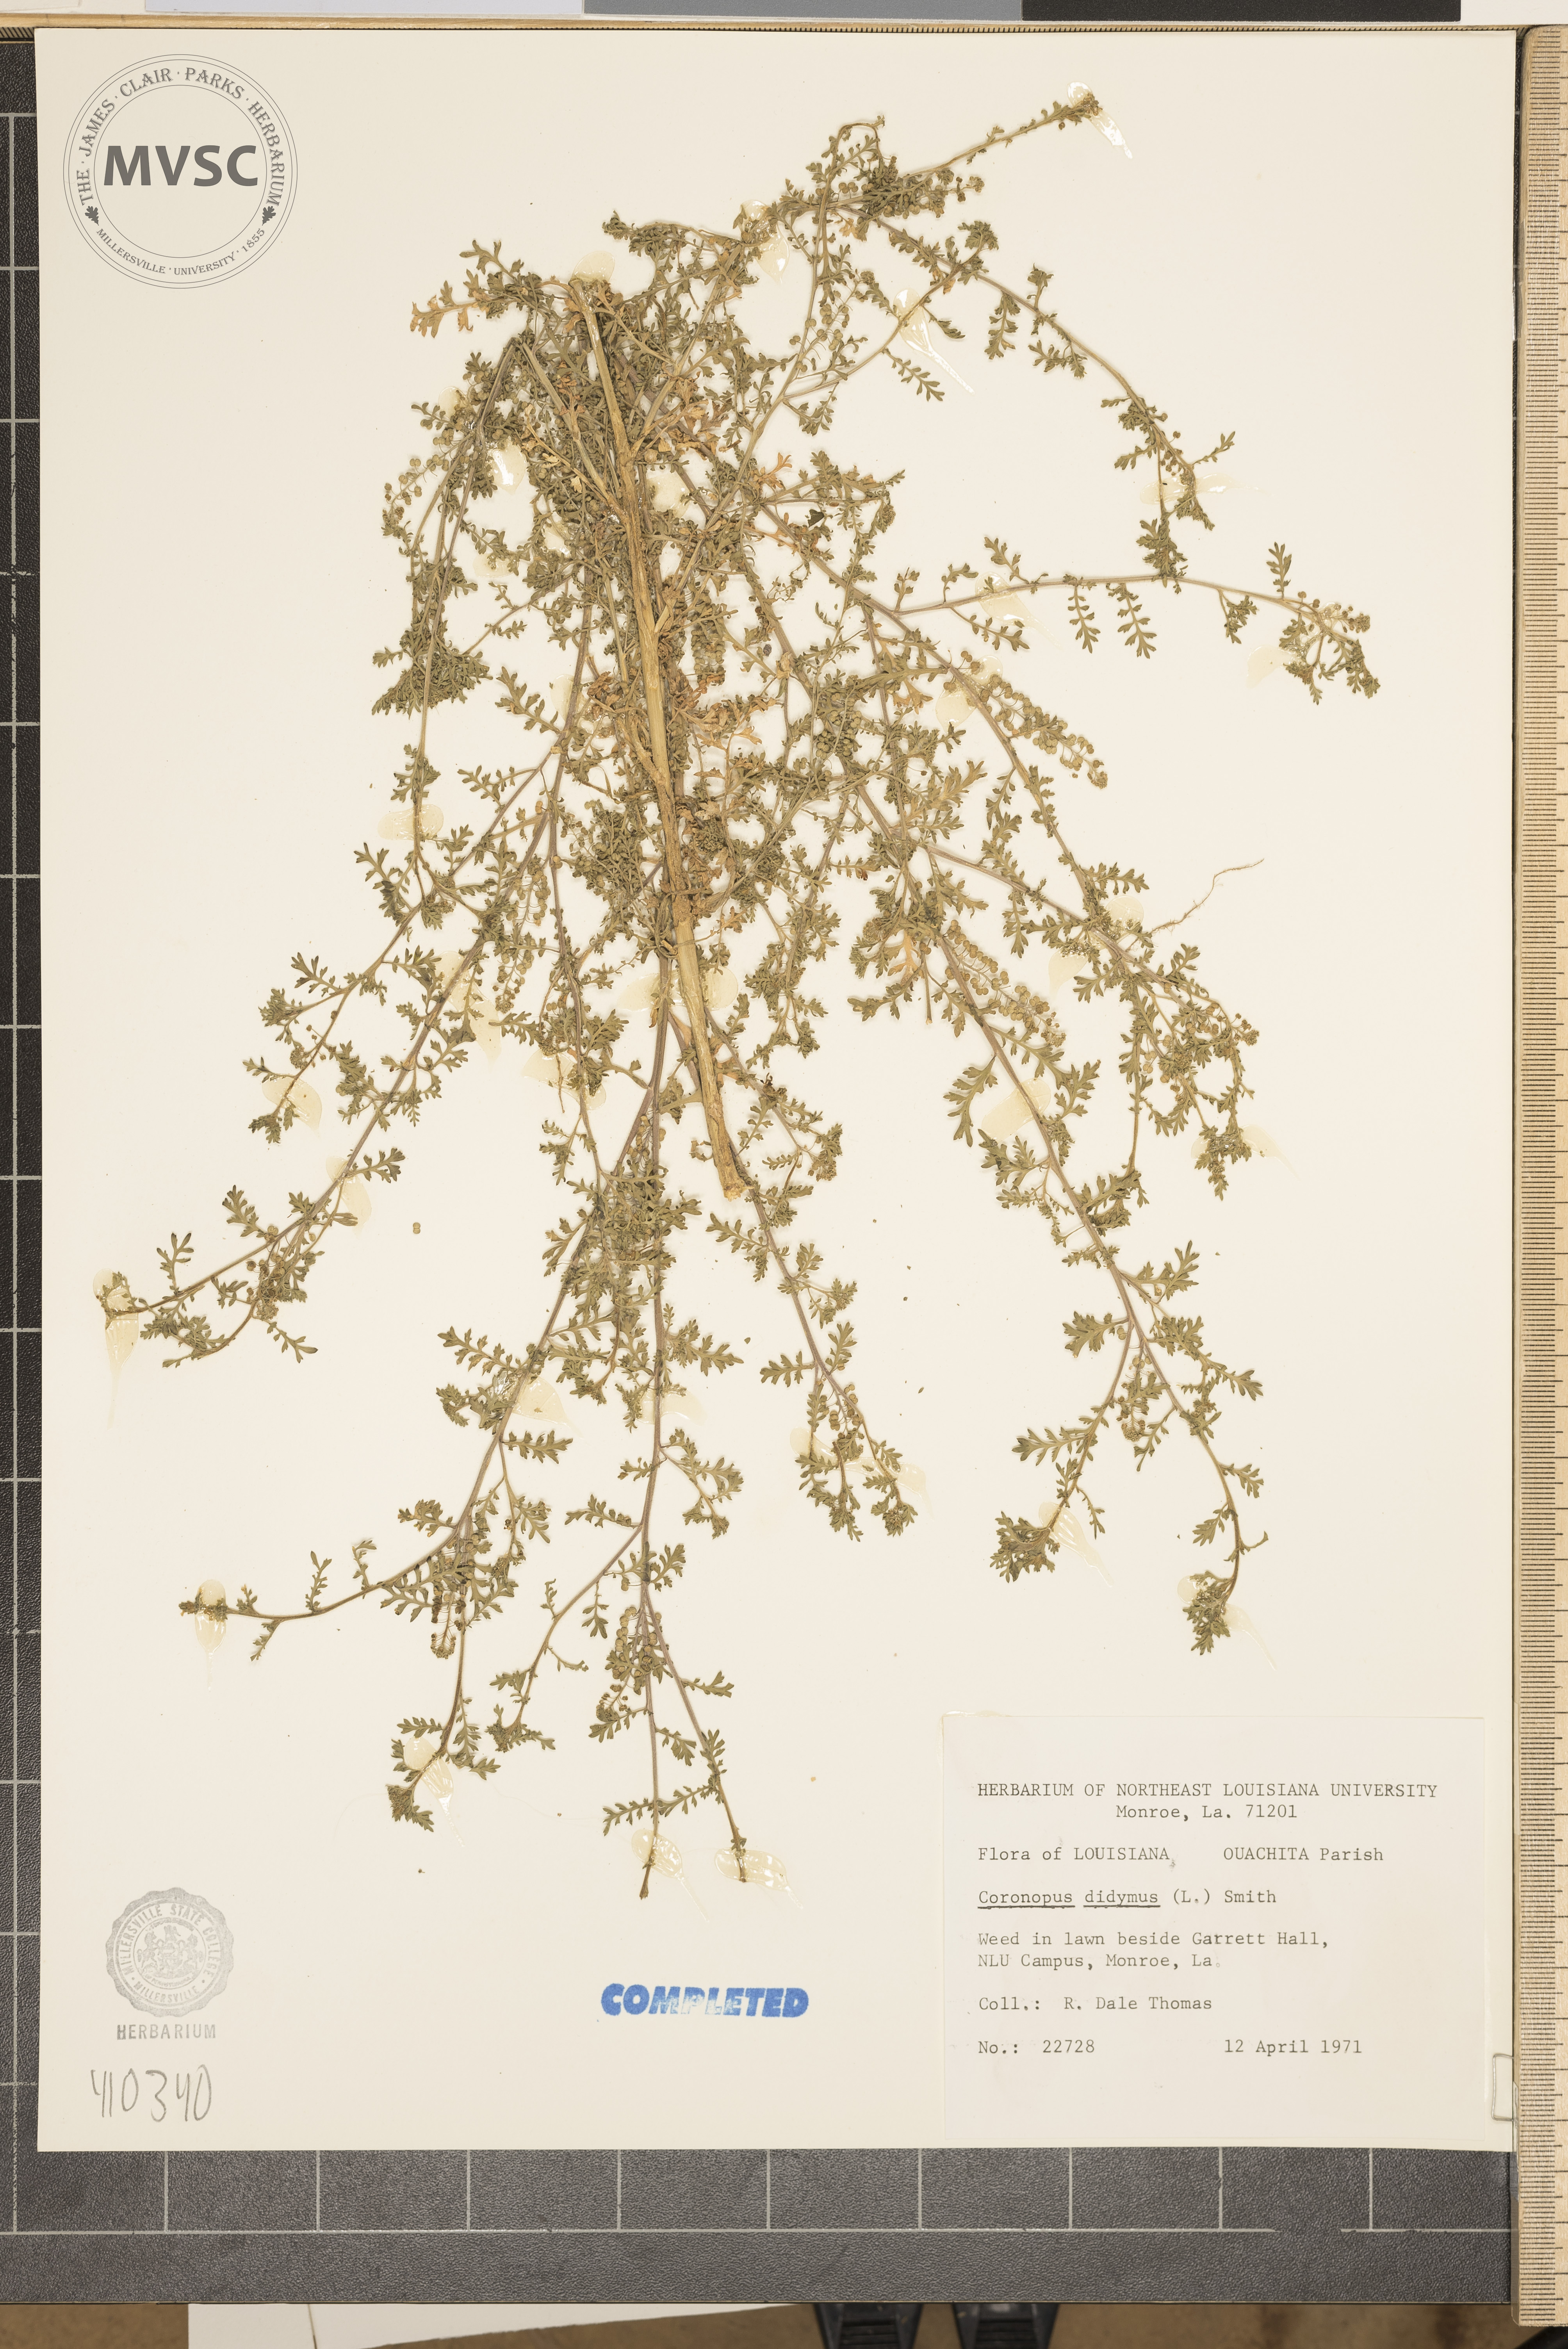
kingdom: Plantae
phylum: Tracheophyta
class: Magnoliopsida
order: Brassicales
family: Brassicaceae
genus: Lepidium
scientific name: Lepidium didymum
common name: Lesser swinecress
